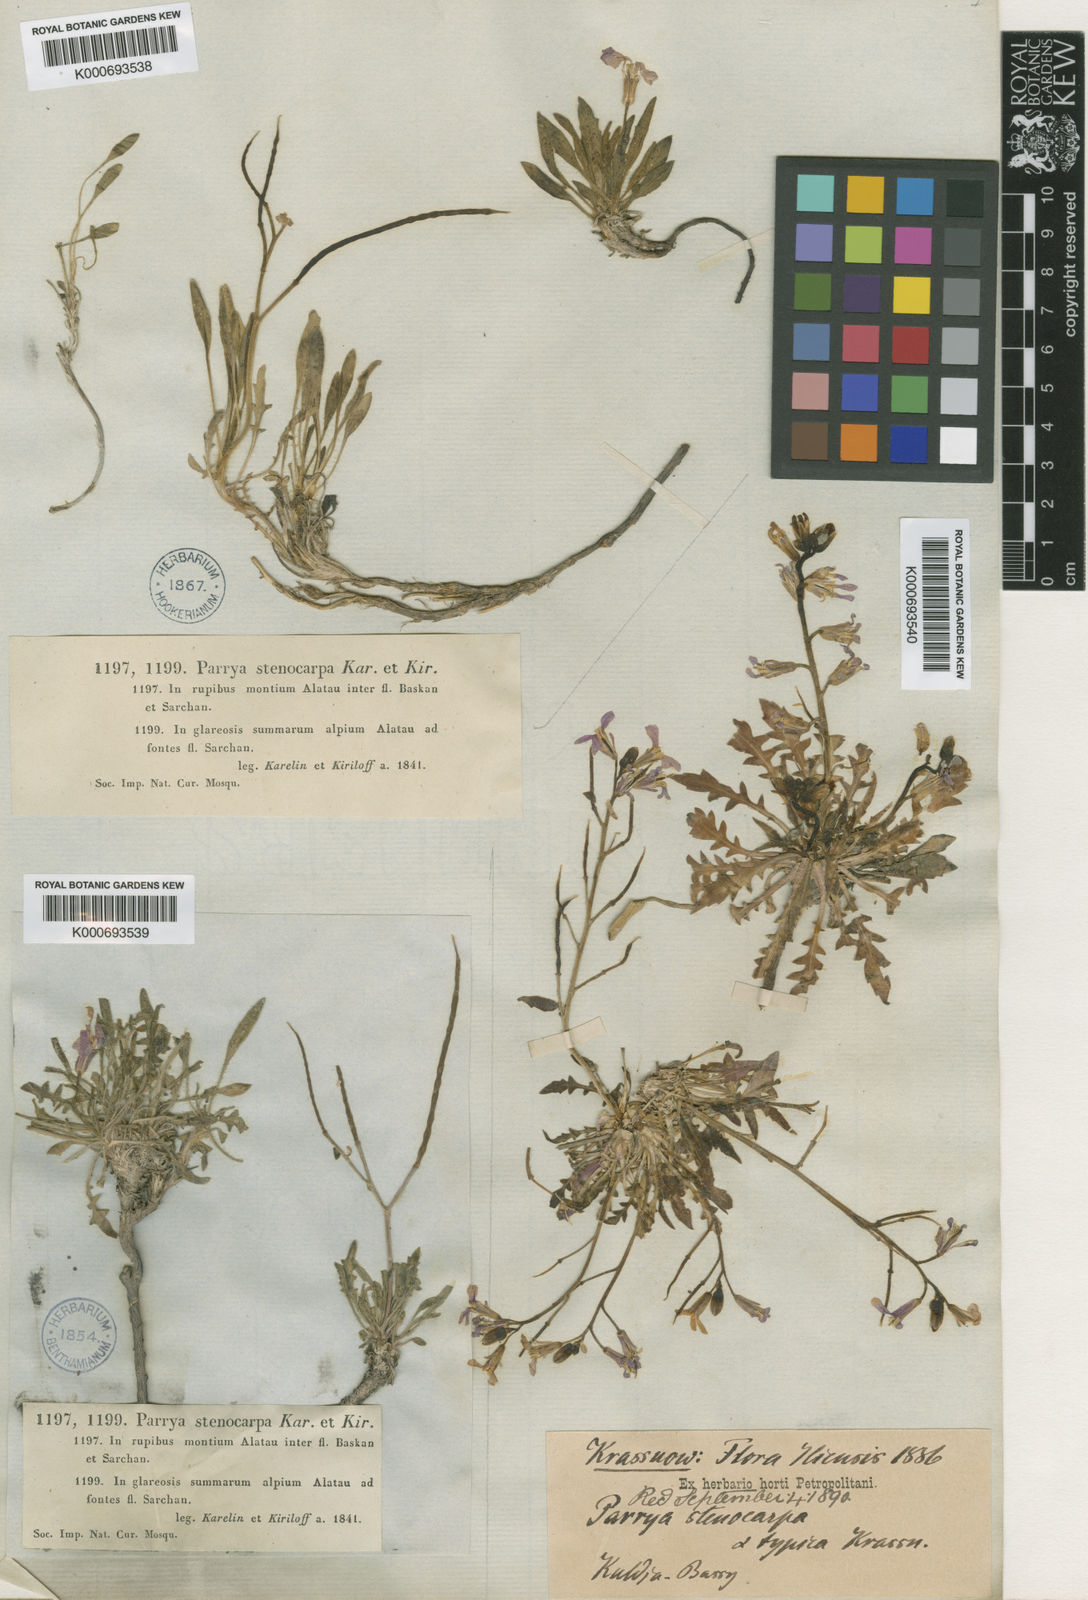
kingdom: Plantae
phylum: Tracheophyta
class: Magnoliopsida
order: Brassicales
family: Brassicaceae
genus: Parrya
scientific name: Parrya stenocarpa
